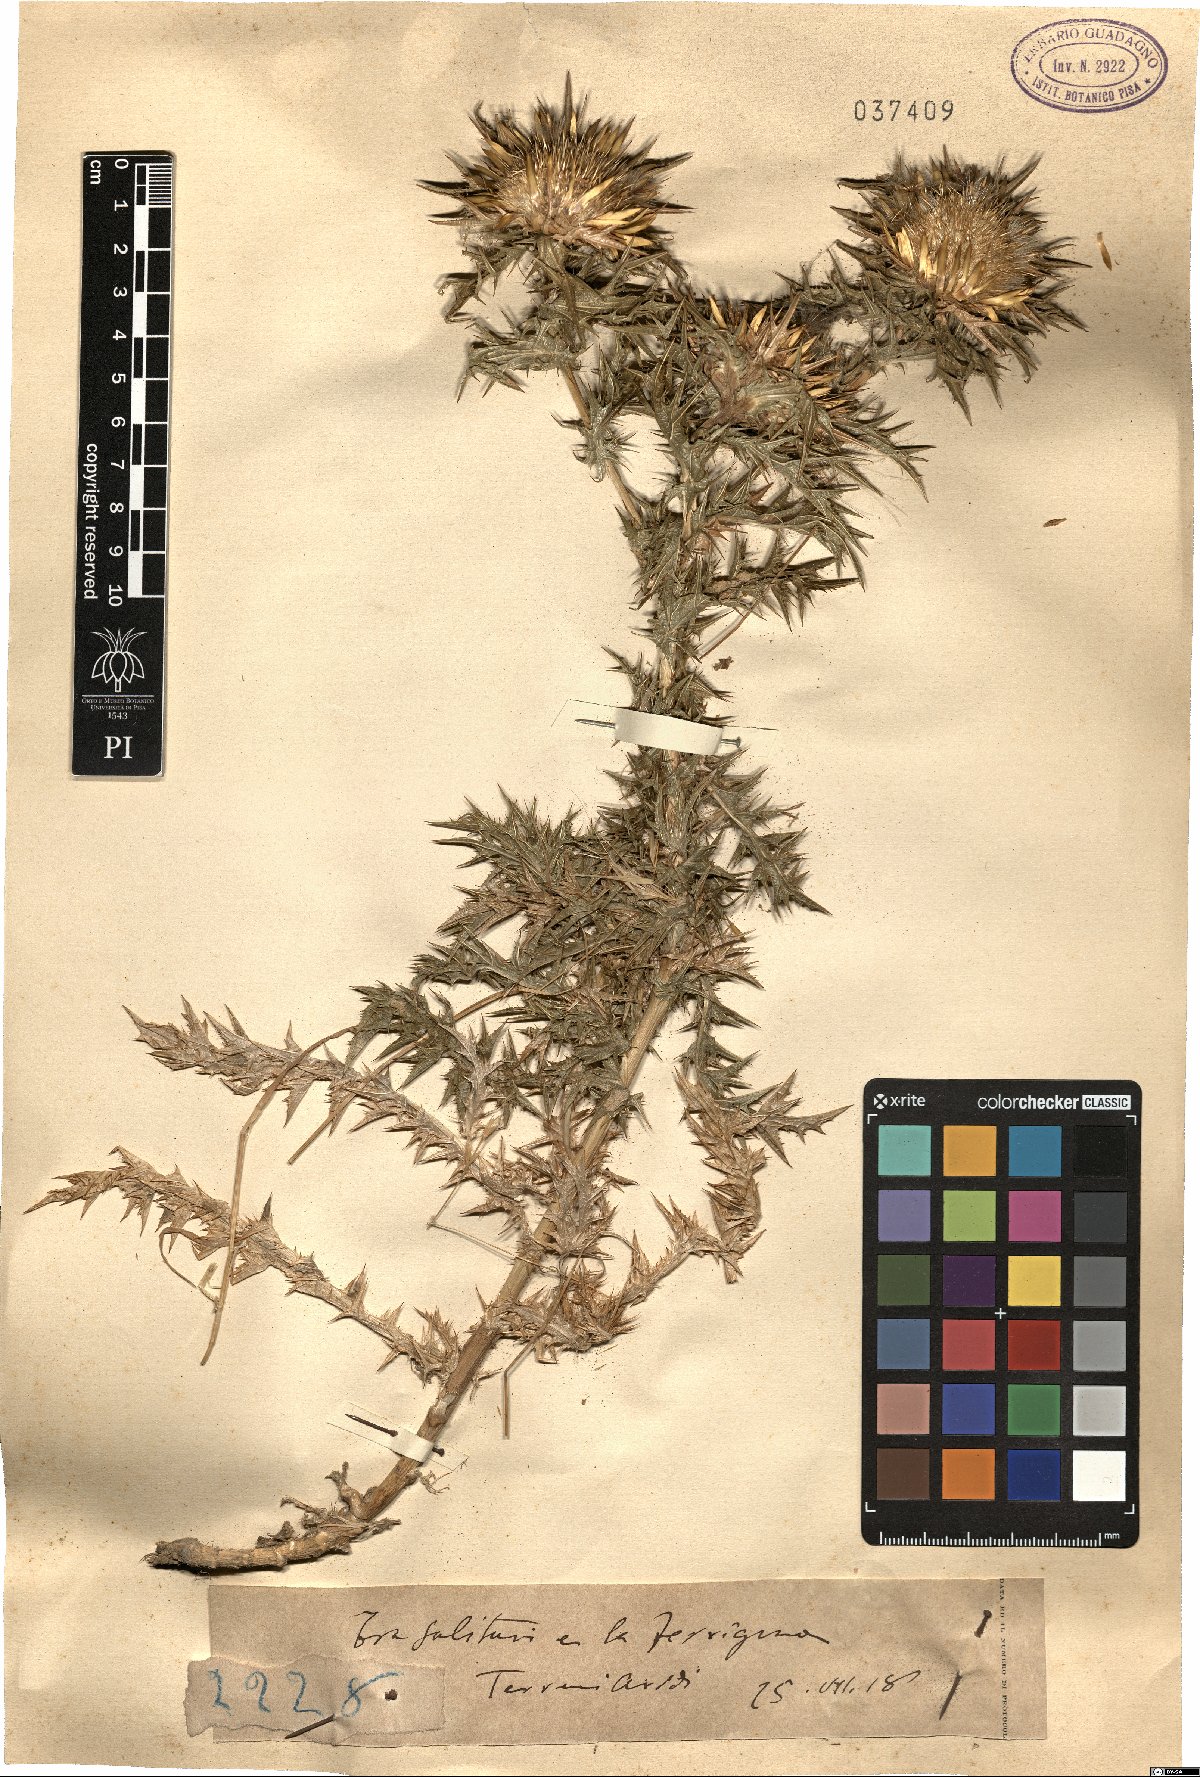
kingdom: Plantae
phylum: Tracheophyta
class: Magnoliopsida
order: Asterales
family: Asteraceae
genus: Carlina
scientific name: Carlina
